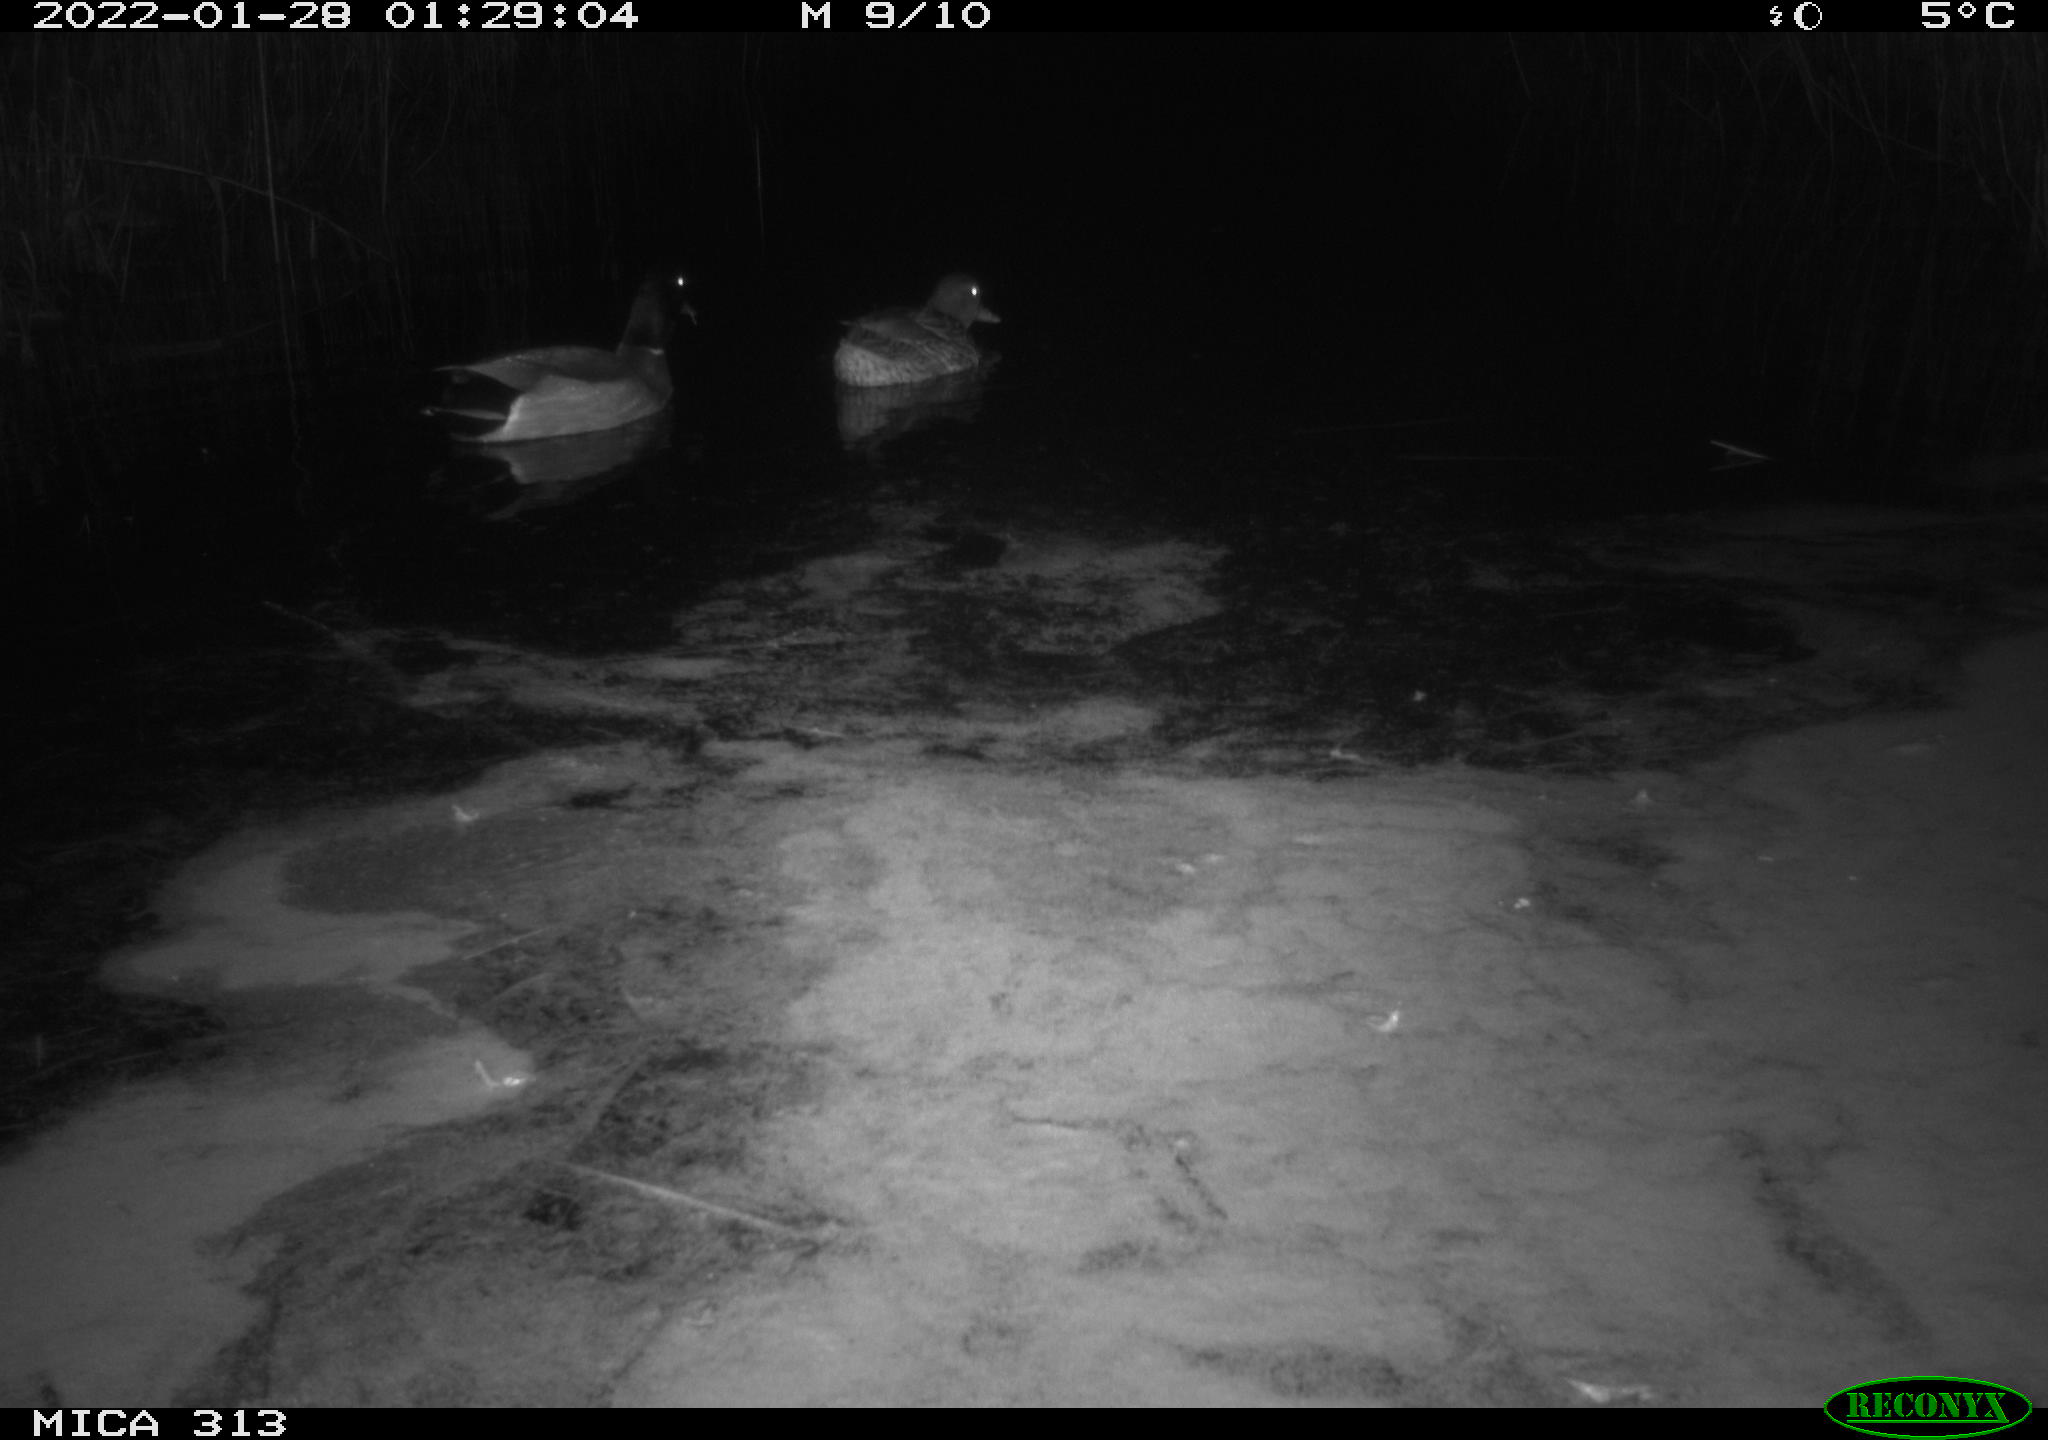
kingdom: Animalia
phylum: Chordata
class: Aves
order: Anseriformes
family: Anatidae
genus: Anas
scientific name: Anas
